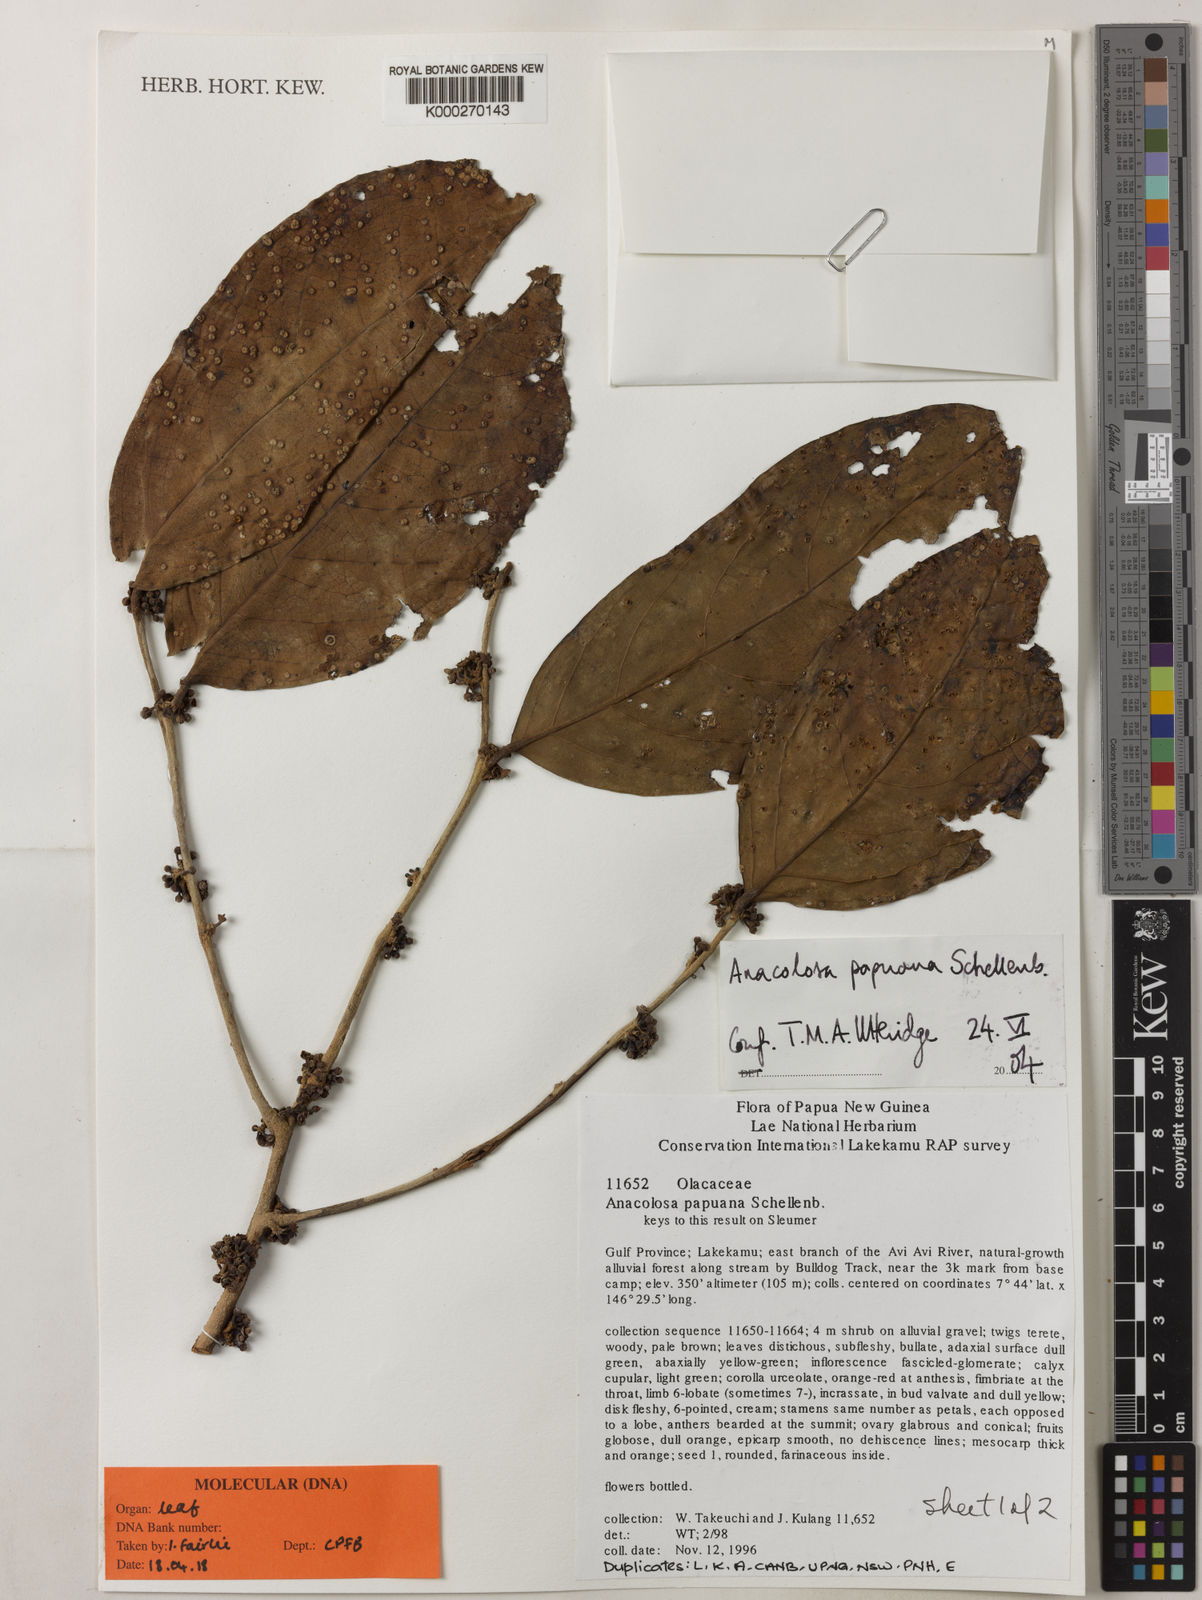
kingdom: Plantae
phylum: Tracheophyta
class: Magnoliopsida
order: Santalales
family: Aptandraceae
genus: Anacolosa
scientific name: Anacolosa papuana
